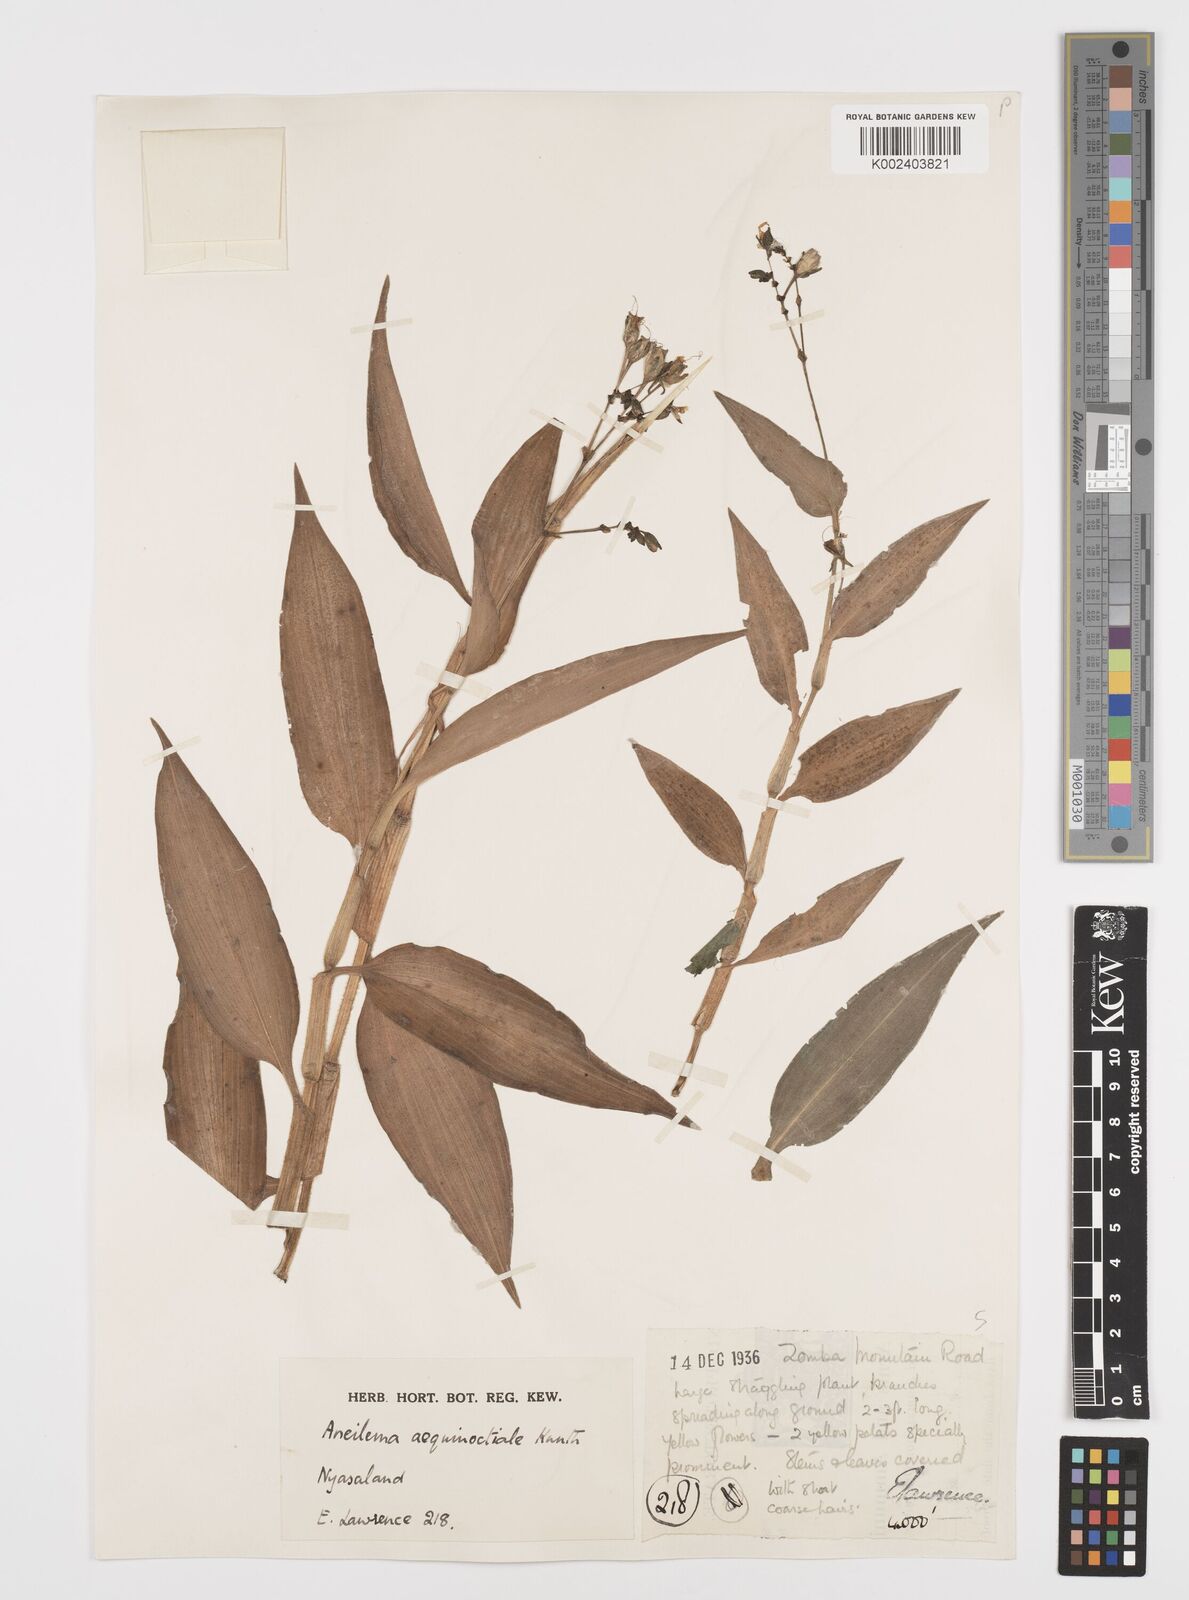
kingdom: Plantae
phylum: Tracheophyta
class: Liliopsida
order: Commelinales
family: Commelinaceae
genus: Aneilema
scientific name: Aneilema aequinoctiale
